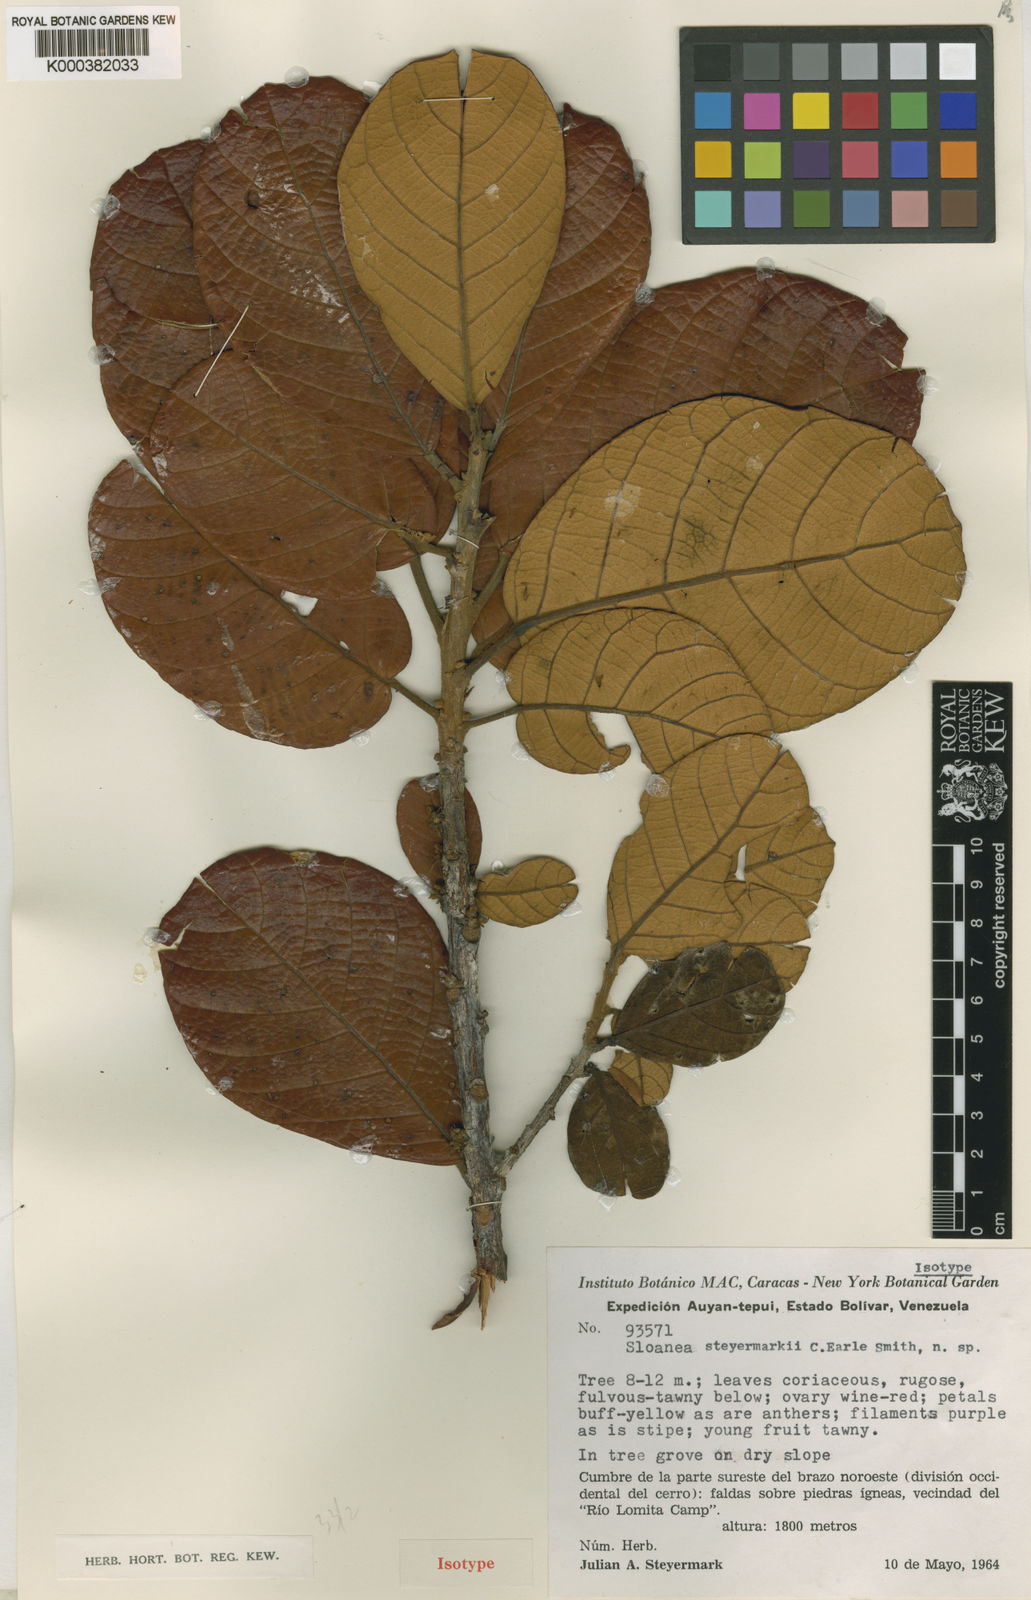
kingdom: Plantae
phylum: Tracheophyta
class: Magnoliopsida
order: Oxalidales
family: Elaeocarpaceae
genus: Sloanea
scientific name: Sloanea steyermarkii
